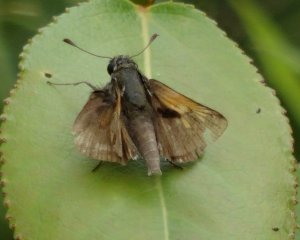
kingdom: Animalia
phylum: Arthropoda
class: Insecta
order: Lepidoptera
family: Hesperiidae
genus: Polites
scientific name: Polites themistocles
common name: Tawny-edged Skipper
